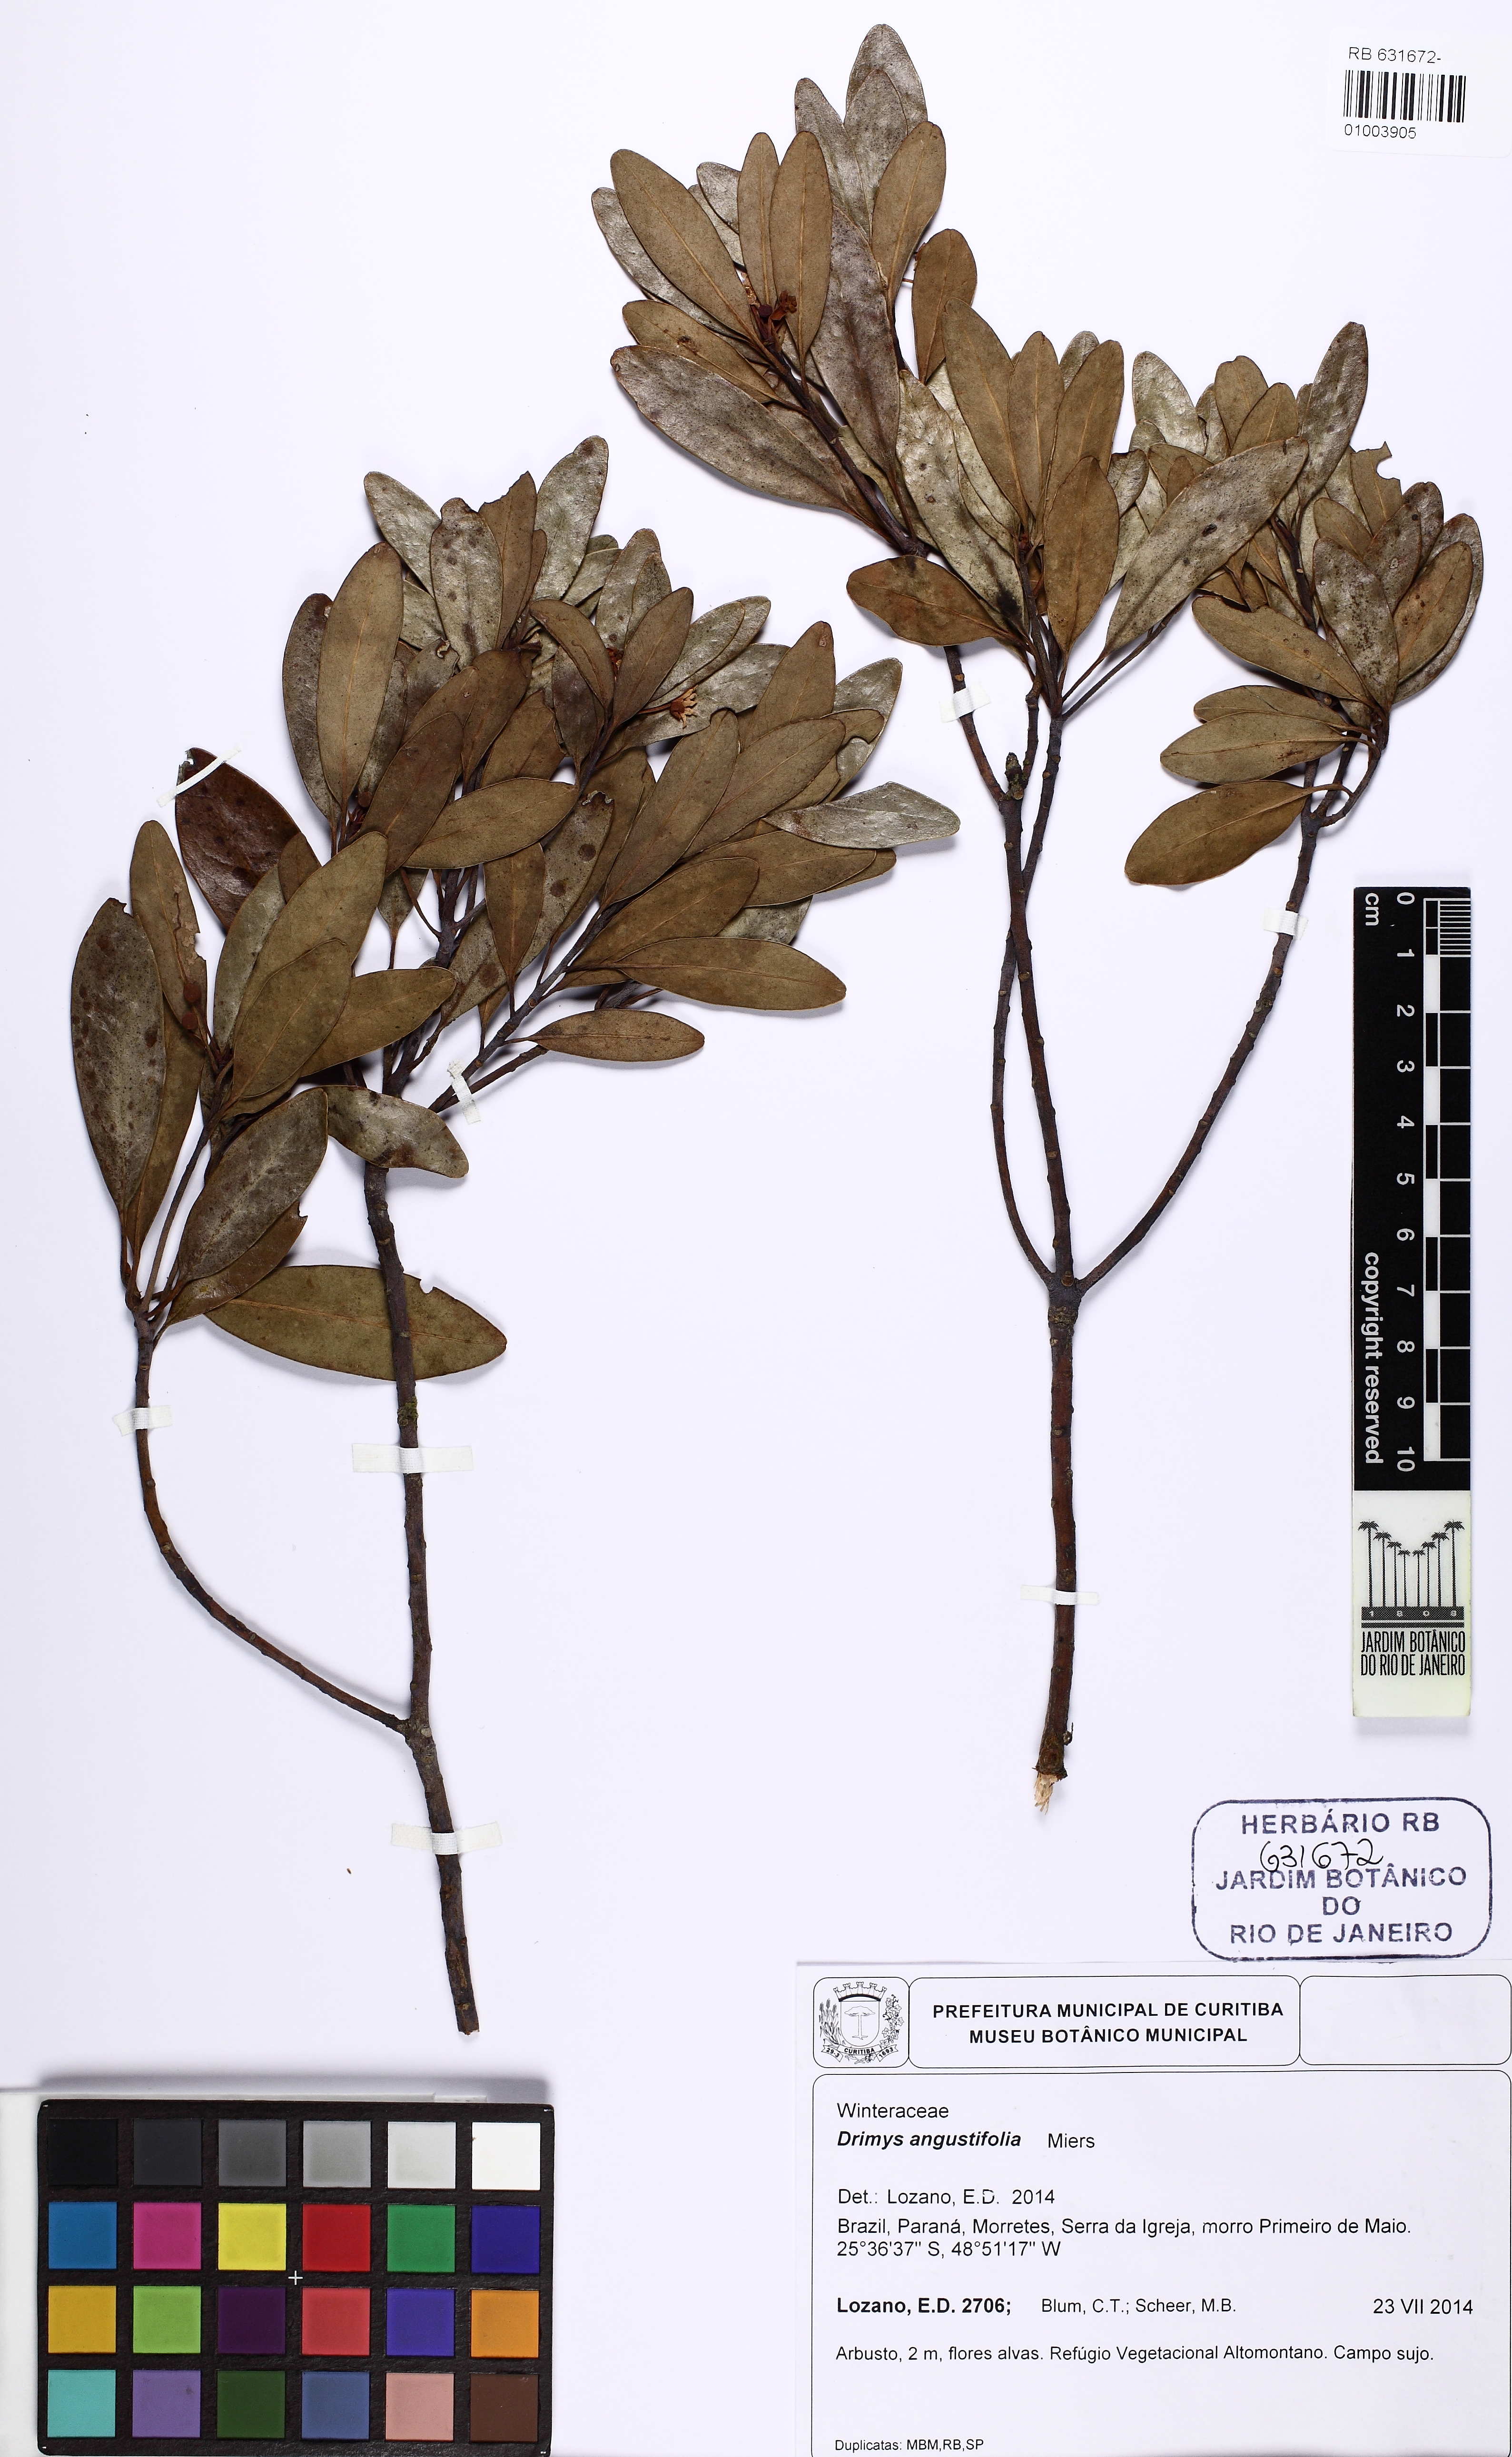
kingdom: Plantae
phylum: Tracheophyta
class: Magnoliopsida
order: Canellales
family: Winteraceae
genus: Drimys
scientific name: Drimys angustifolia
